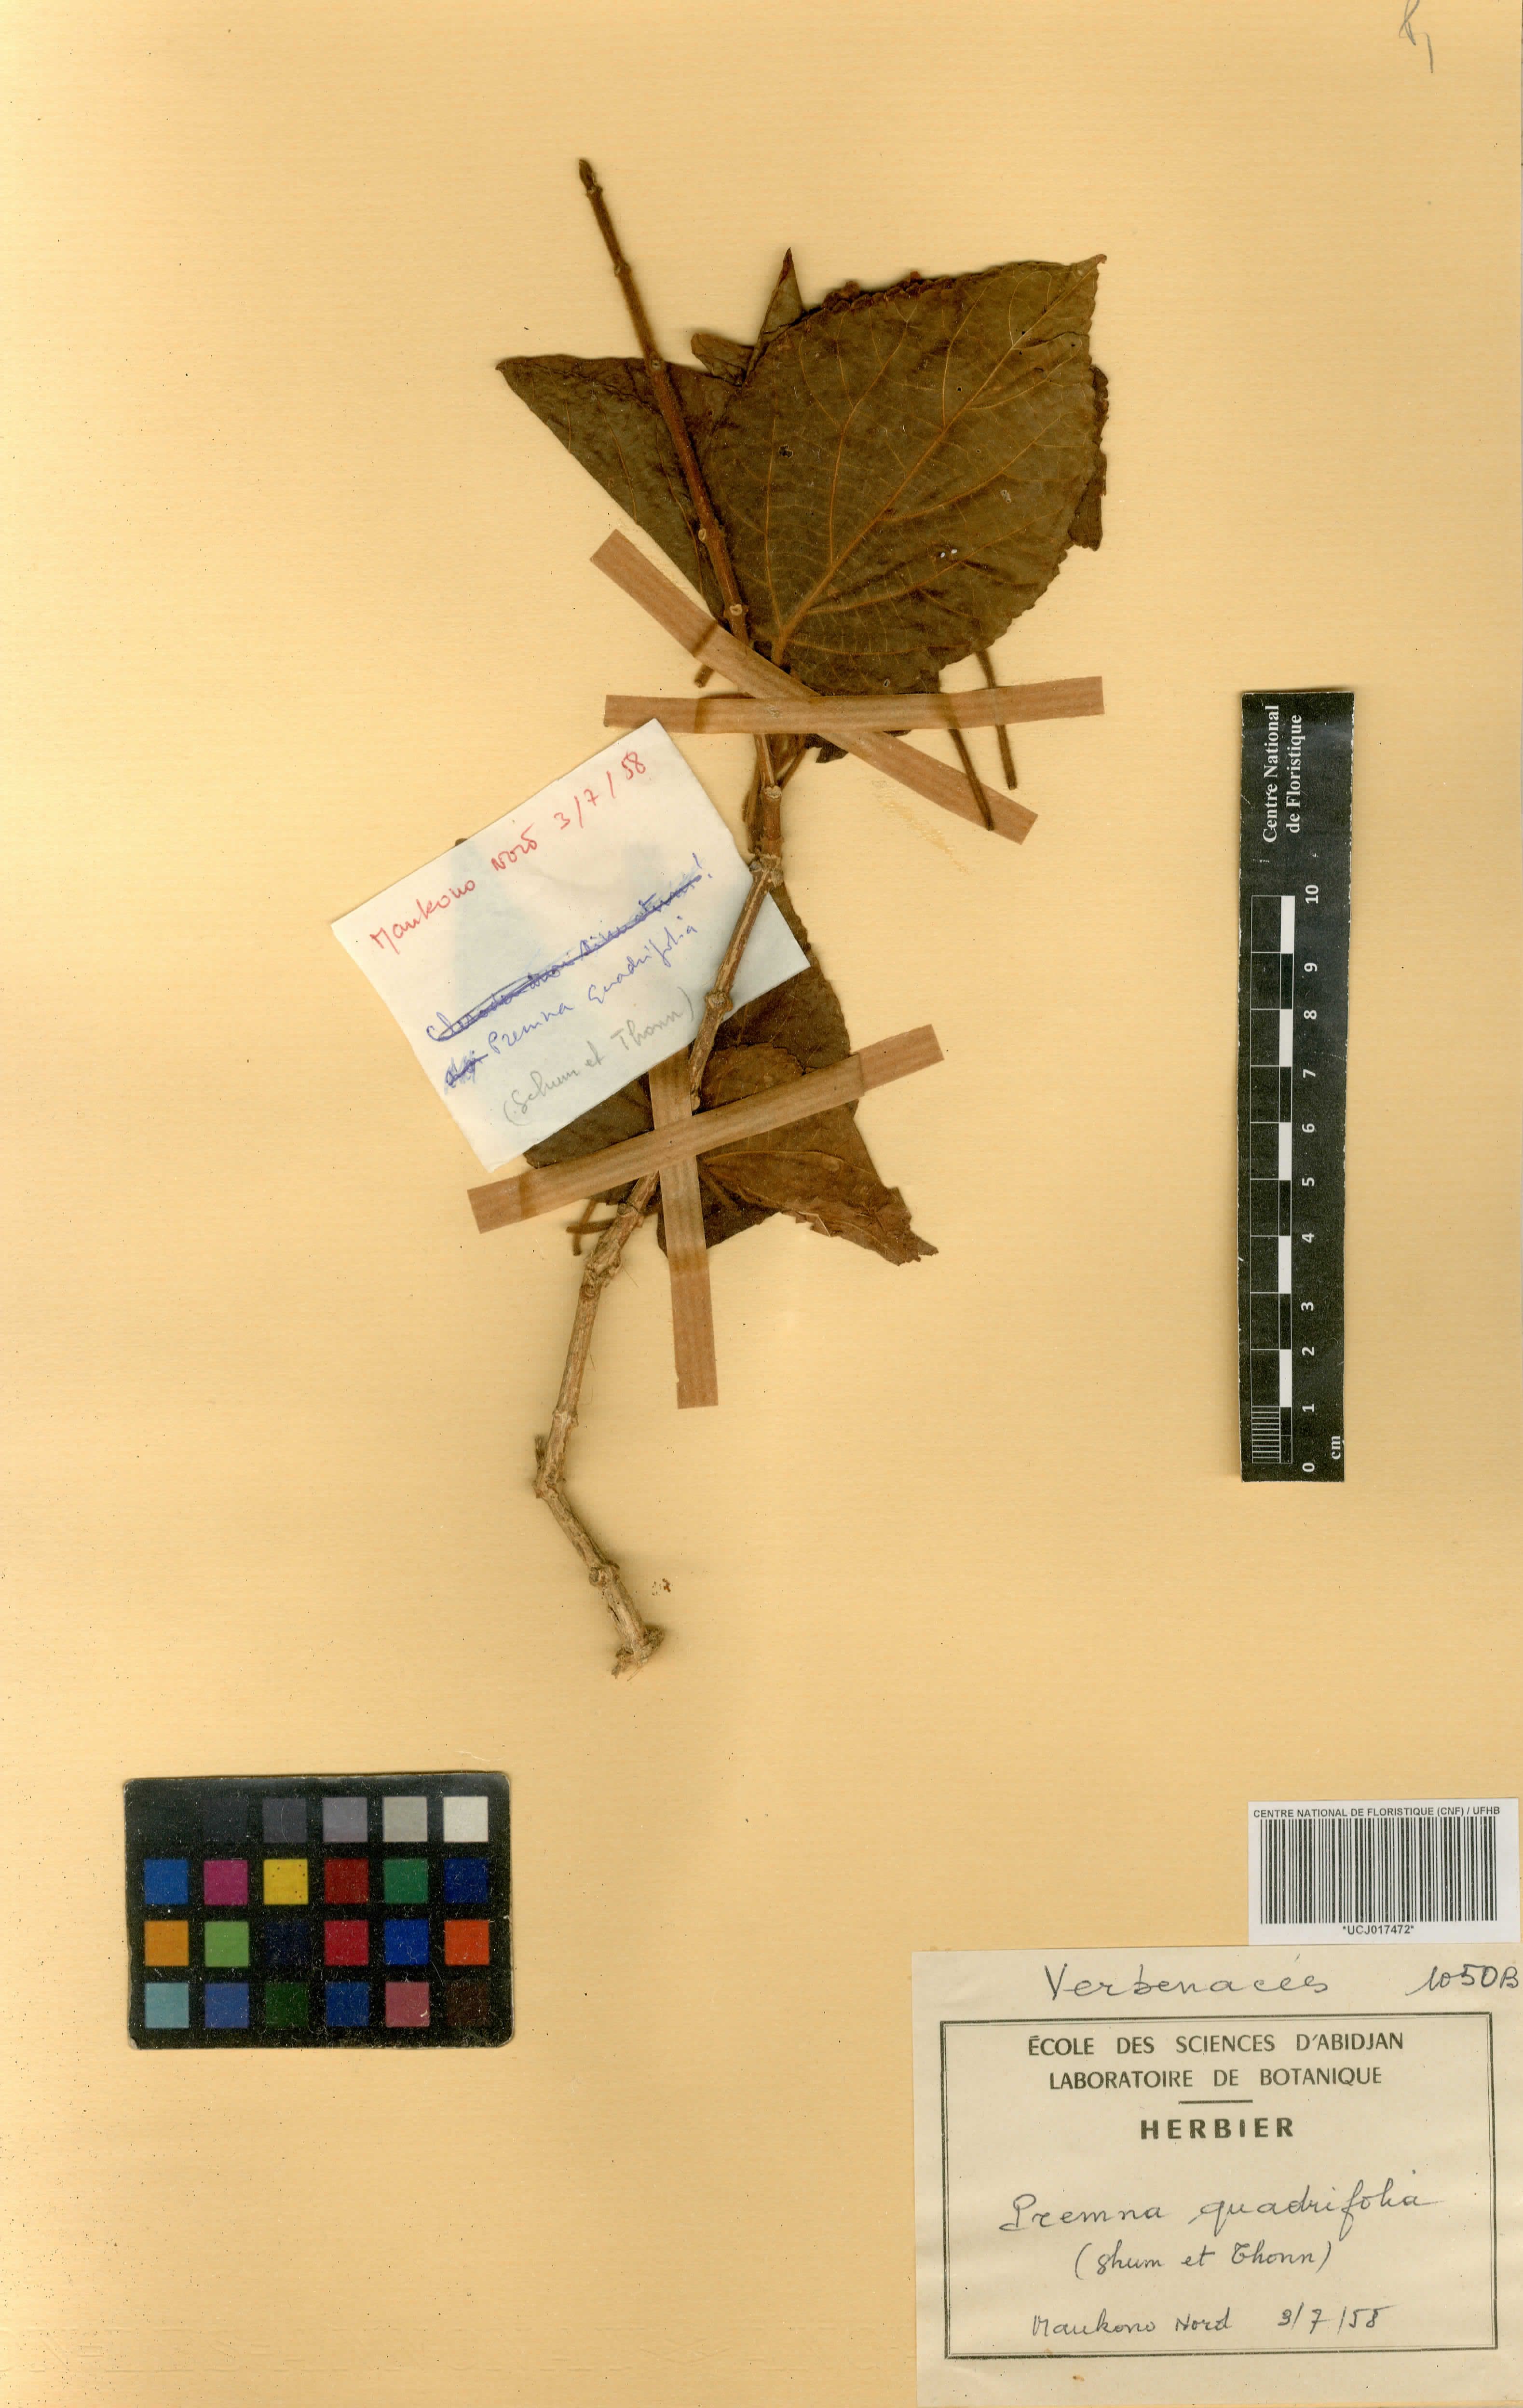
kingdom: Plantae
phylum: Tracheophyta
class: Magnoliopsida
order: Lamiales
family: Lamiaceae
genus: Premna
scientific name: Premna quadrifolia
